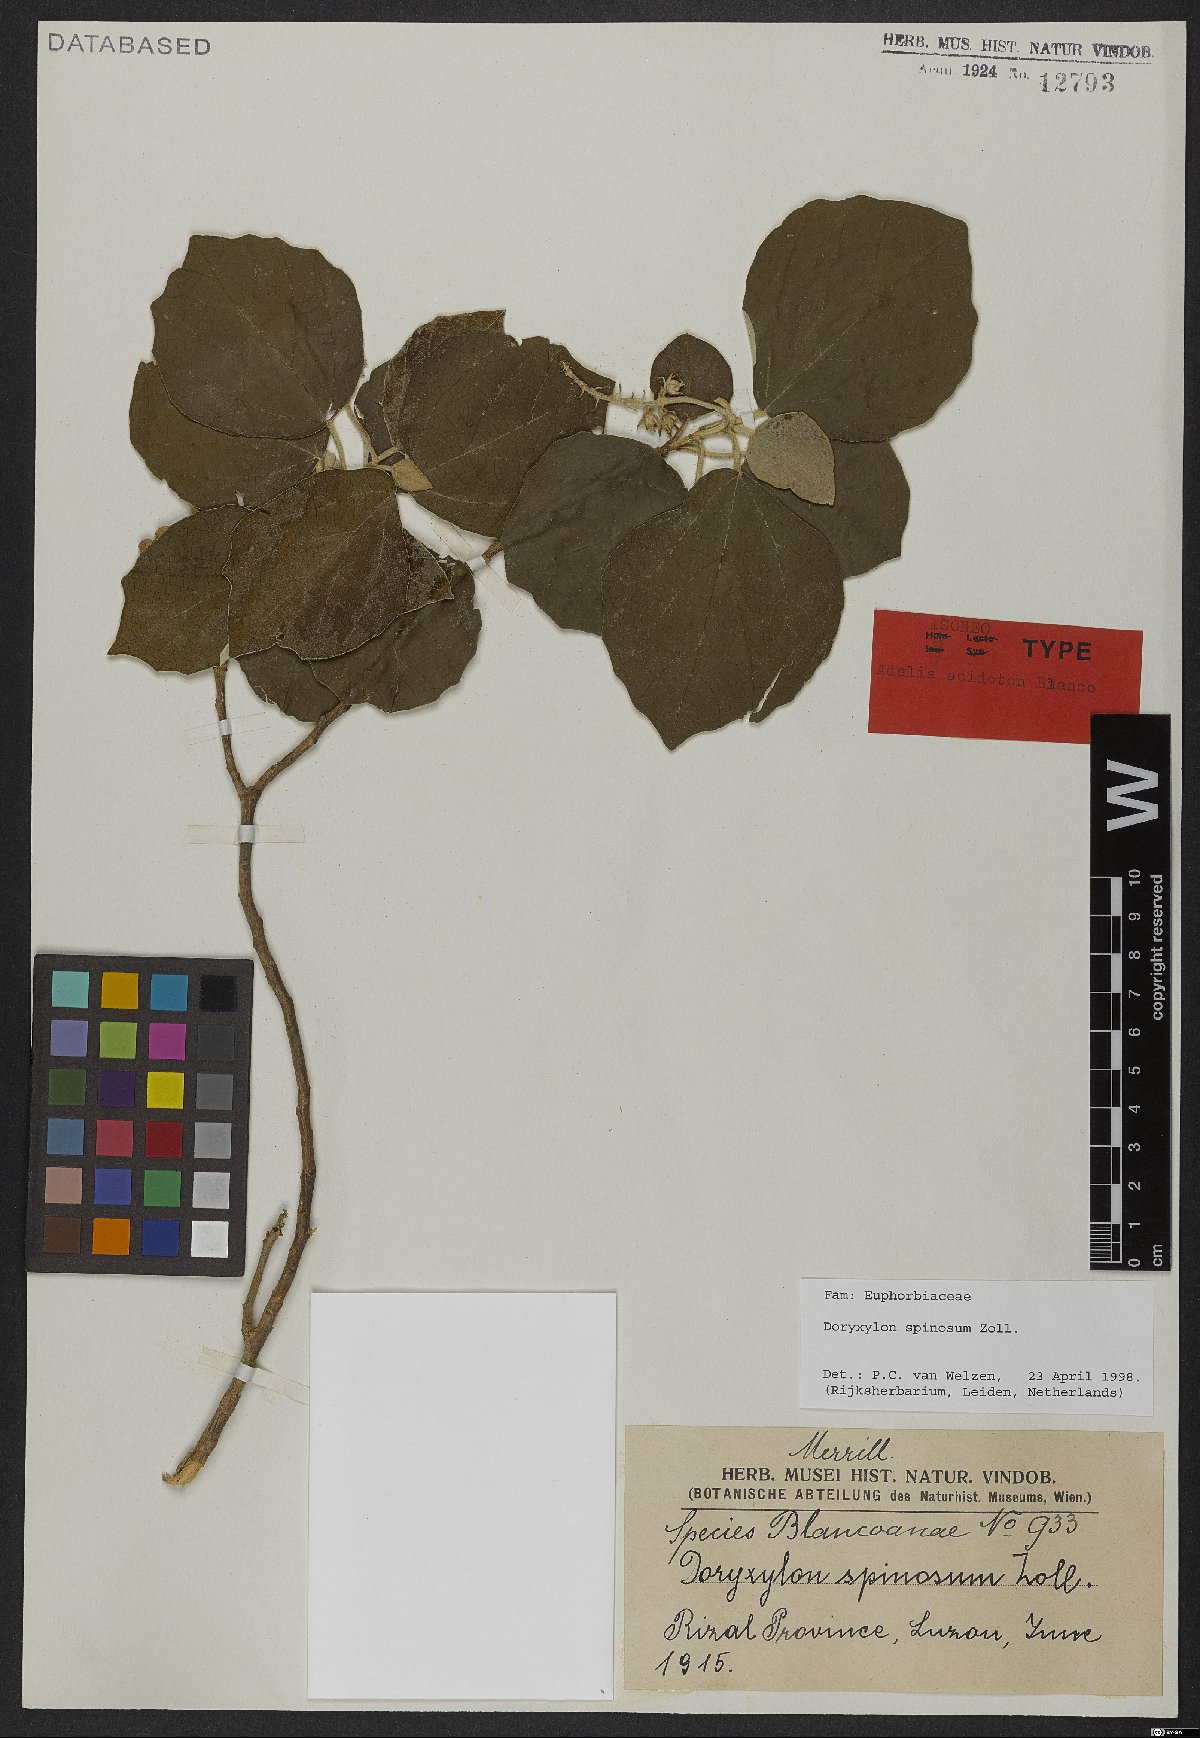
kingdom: Plantae
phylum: Tracheophyta
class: Magnoliopsida
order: Malpighiales
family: Euphorbiaceae
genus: Doryxylon
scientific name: Doryxylon spinosum
